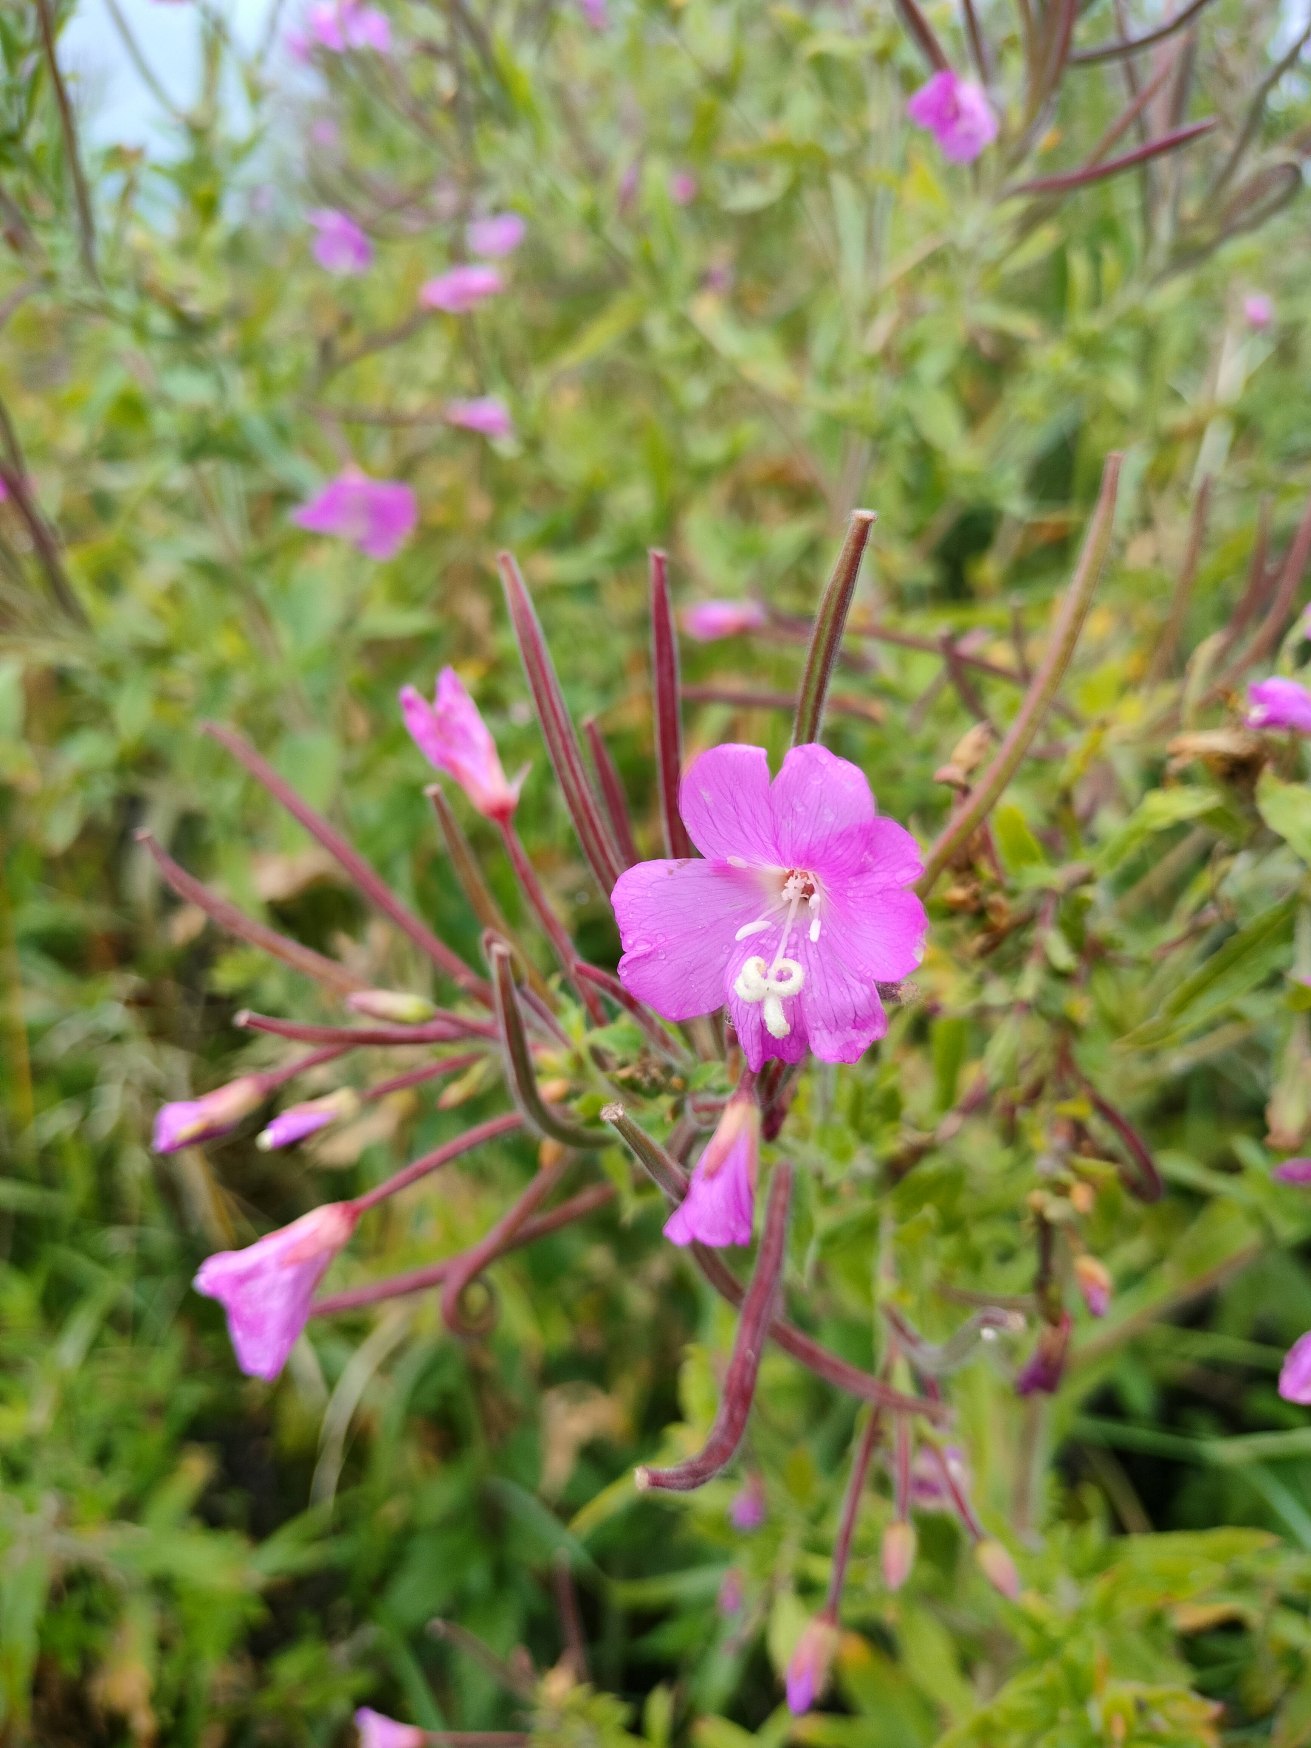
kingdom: Plantae
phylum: Tracheophyta
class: Magnoliopsida
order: Myrtales
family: Onagraceae
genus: Epilobium
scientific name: Epilobium hirsutum
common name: Lådden dueurt
